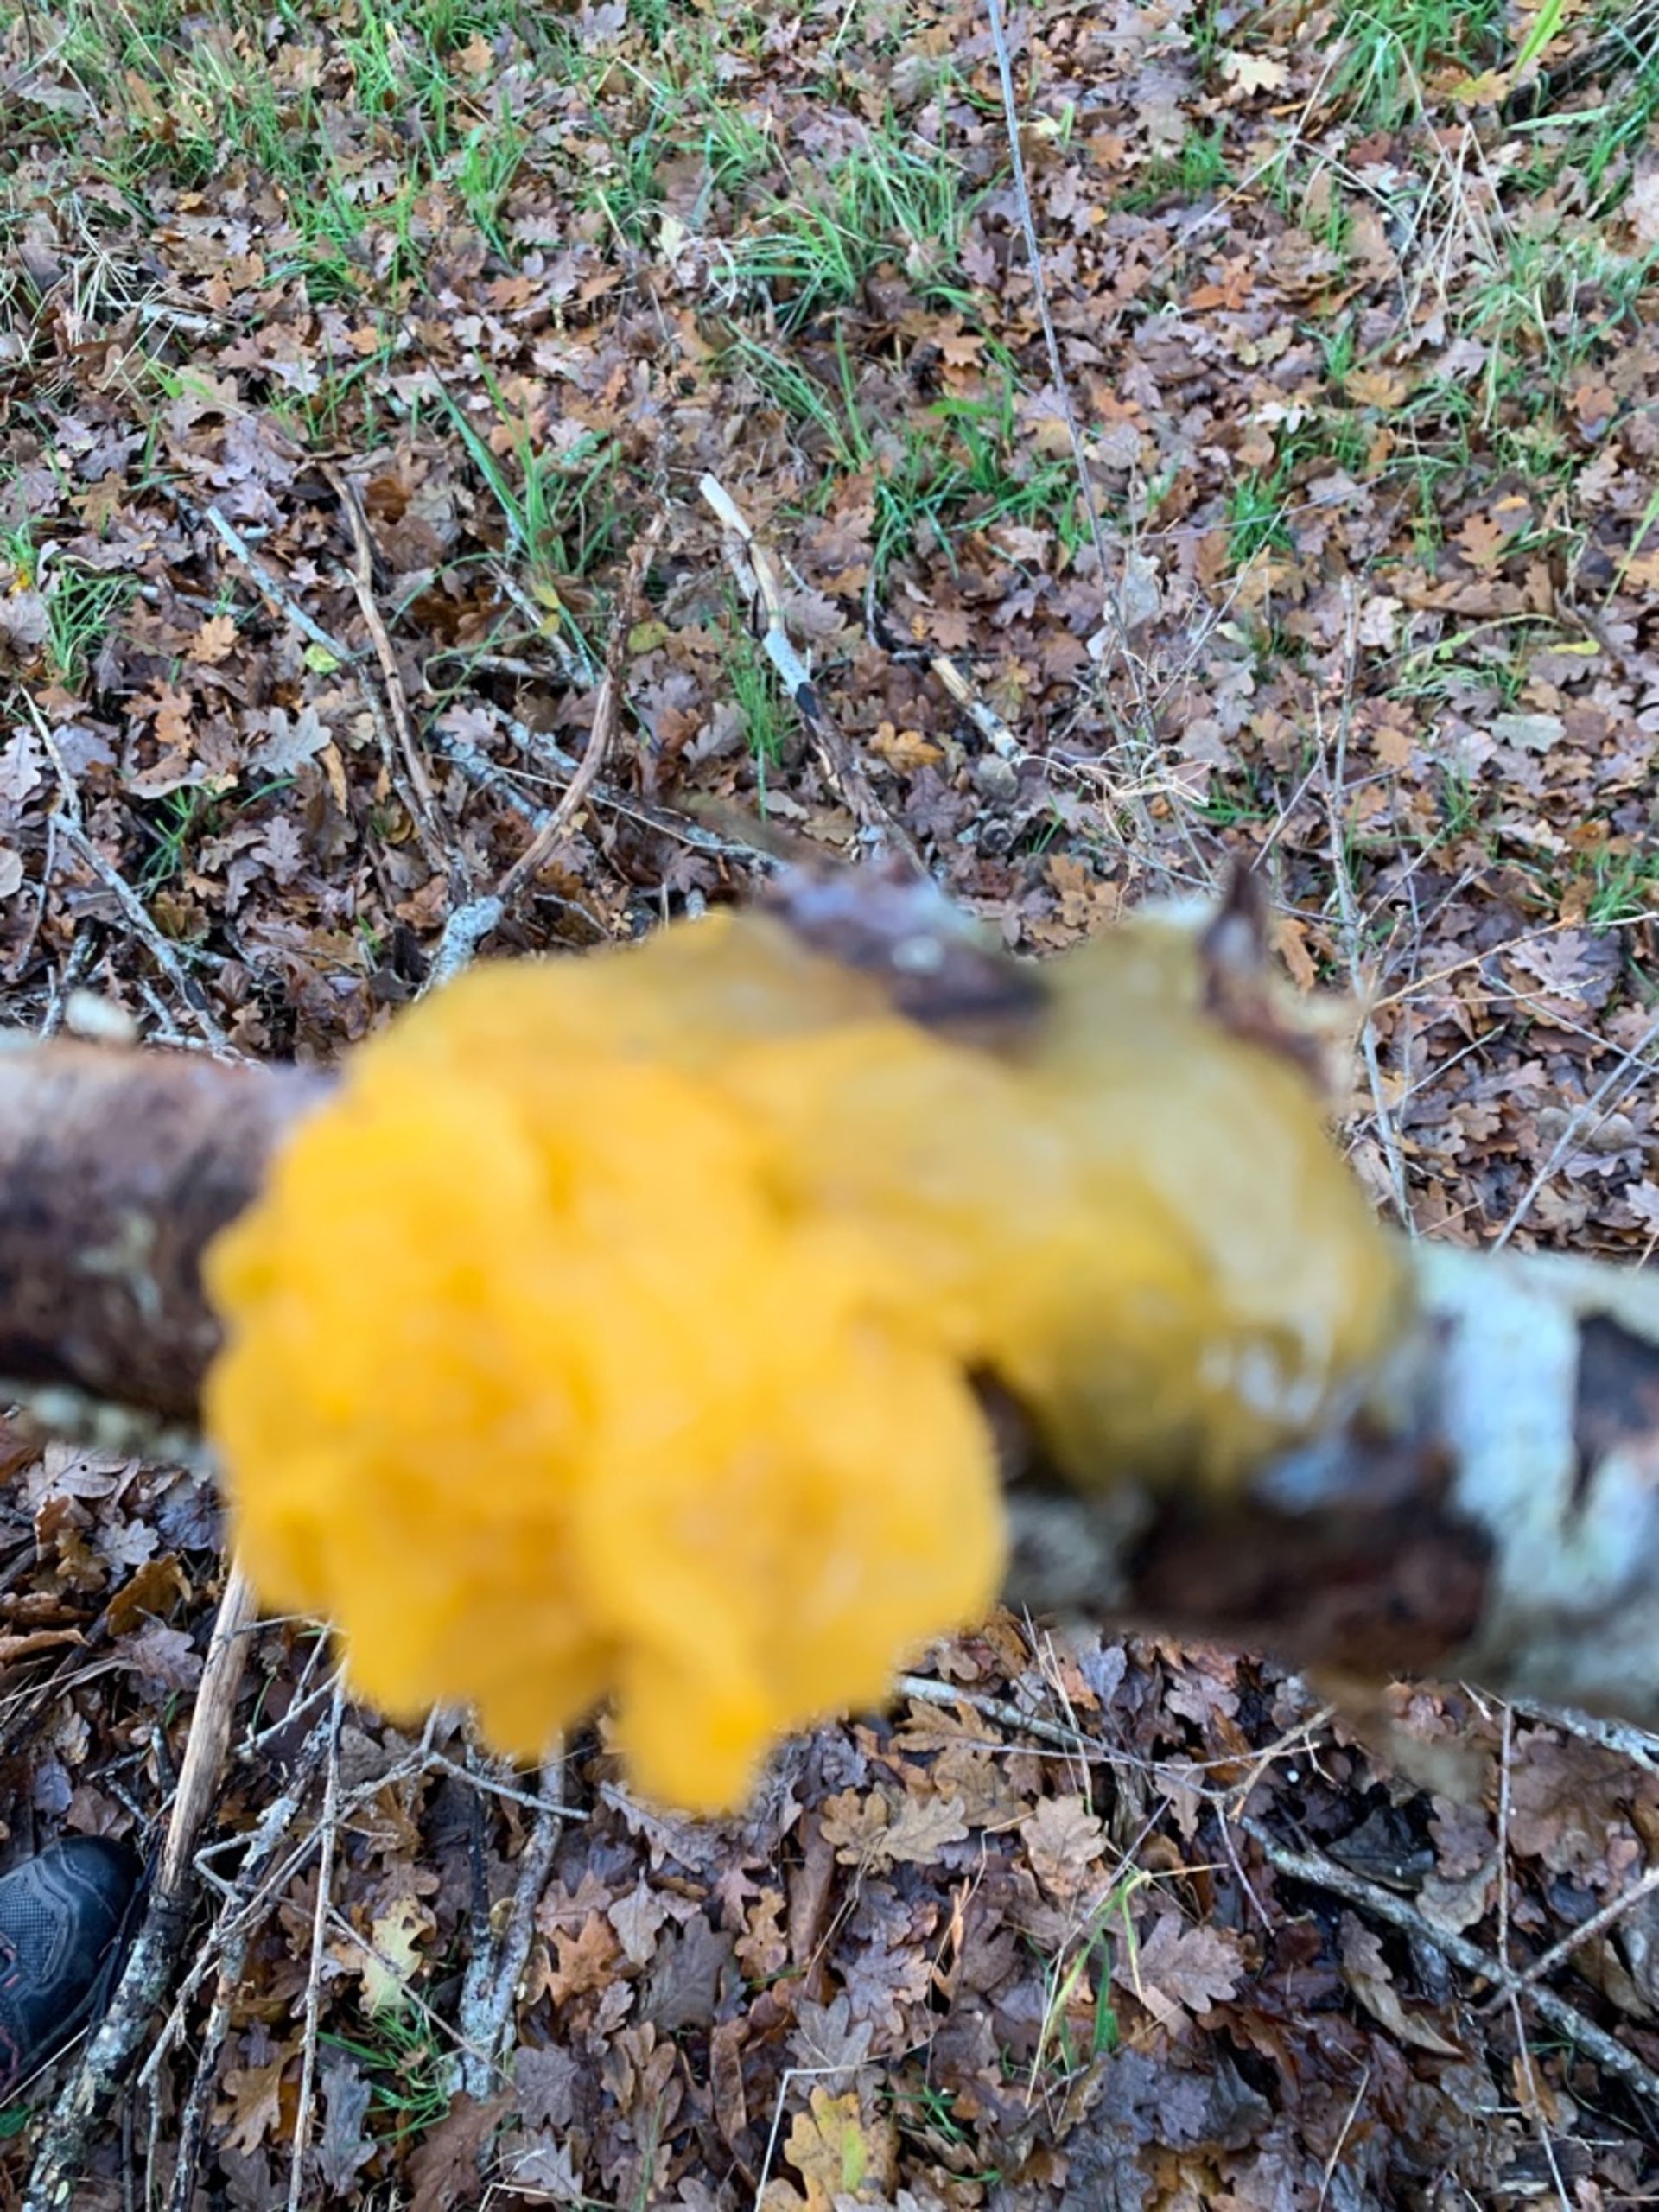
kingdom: Fungi
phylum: Basidiomycota
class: Tremellomycetes
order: Tremellales
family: Tremellaceae
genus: Tremella
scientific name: Tremella mesenterica
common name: Gul bævresvamp
